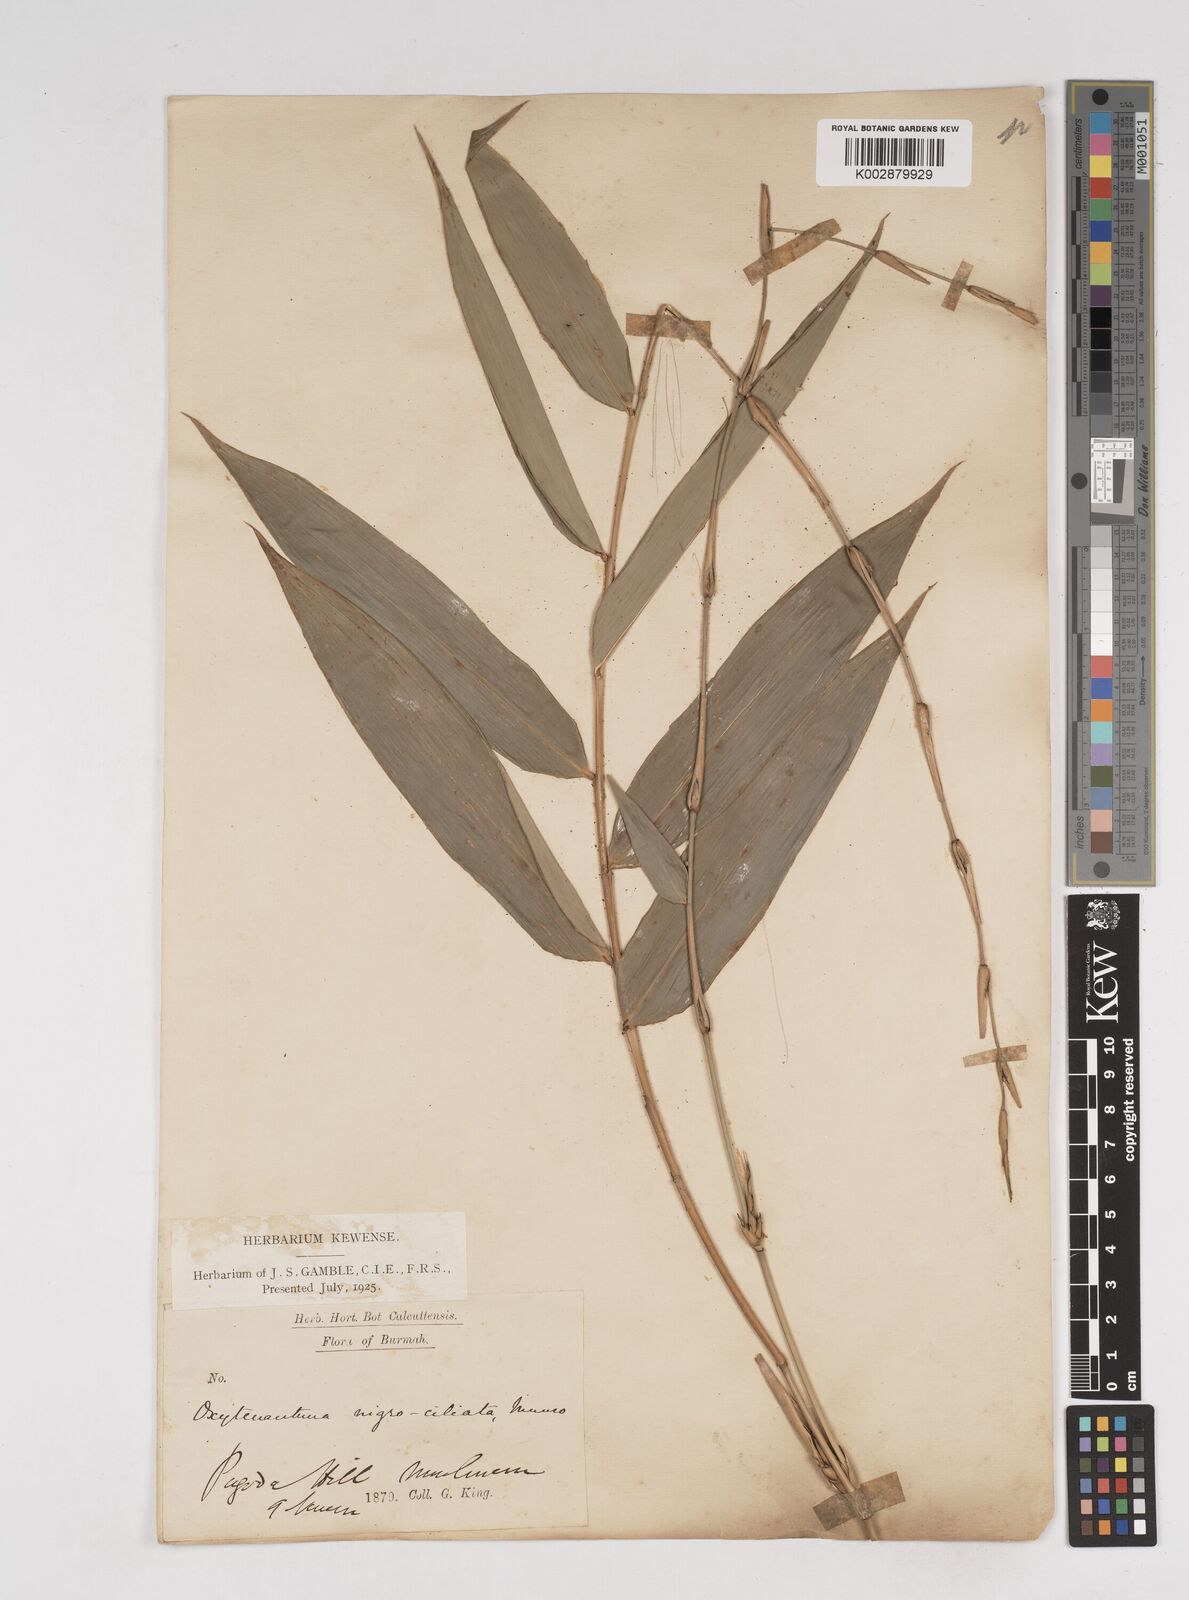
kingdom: Plantae
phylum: Tracheophyta
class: Liliopsida
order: Poales
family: Poaceae
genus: Gigantochloa
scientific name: Gigantochloa nigrociliata
